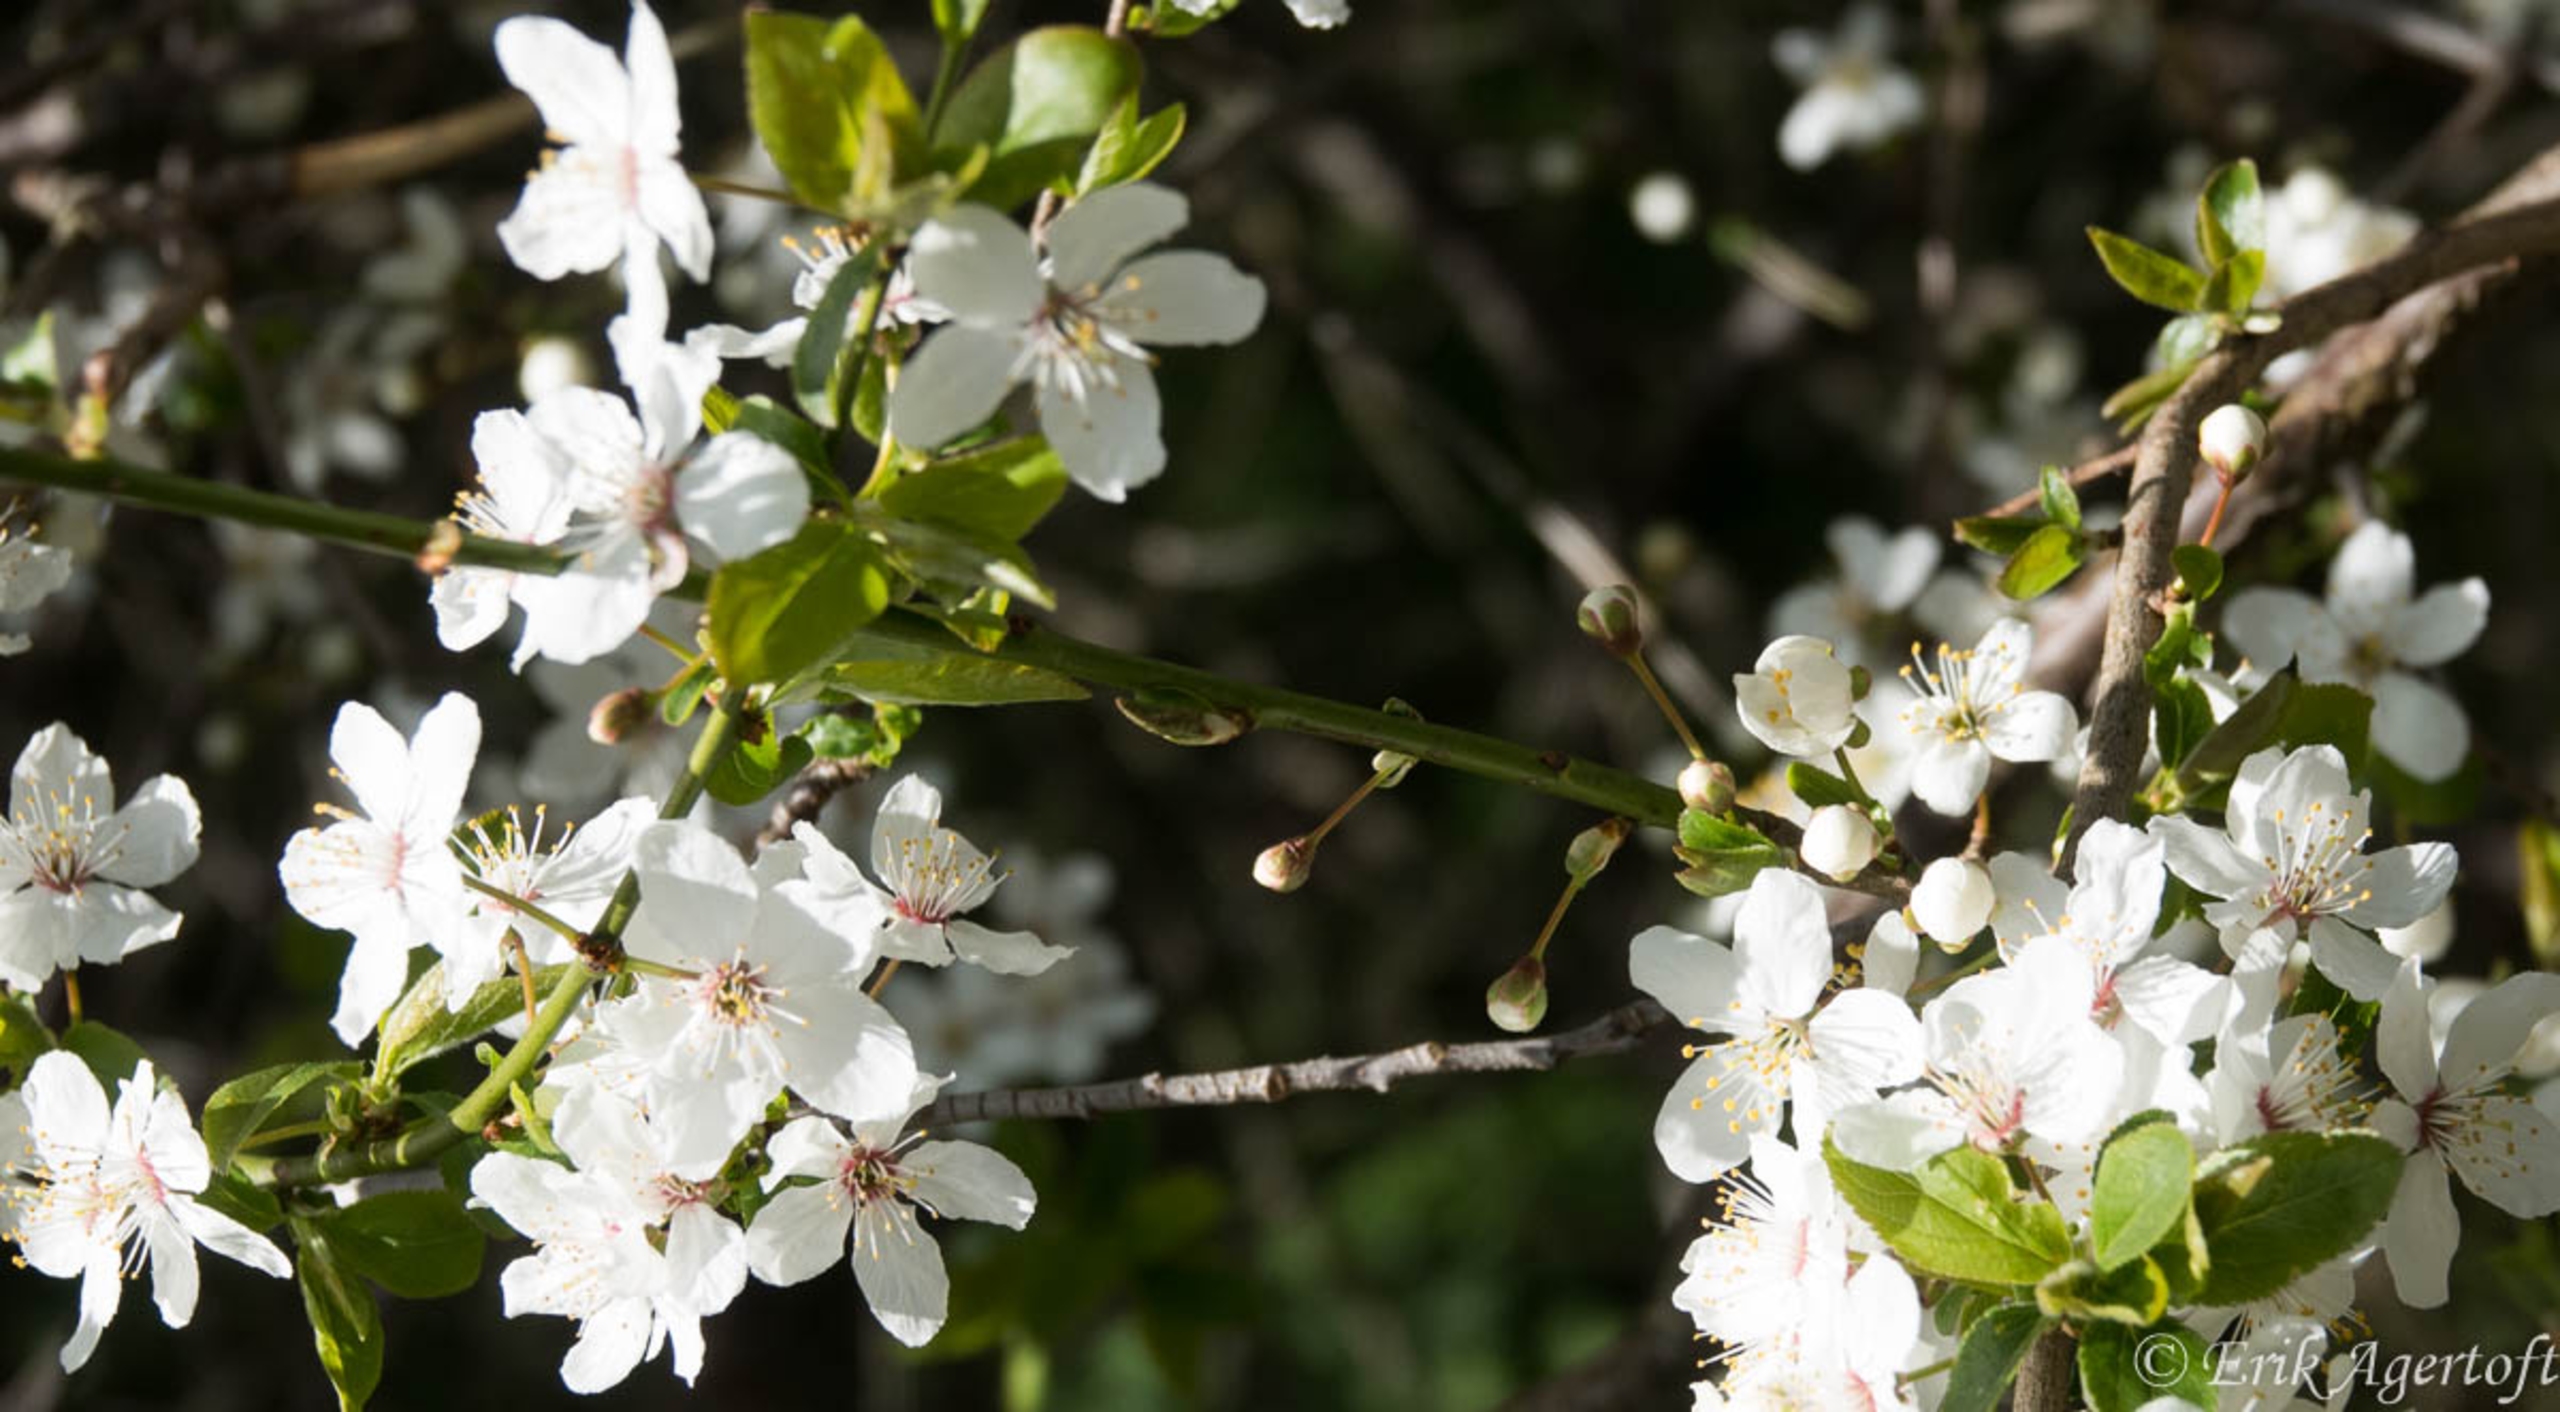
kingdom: Plantae
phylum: Tracheophyta
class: Magnoliopsida
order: Rosales
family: Rosaceae
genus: Prunus
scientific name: Prunus cerasifera
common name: Mirabel
